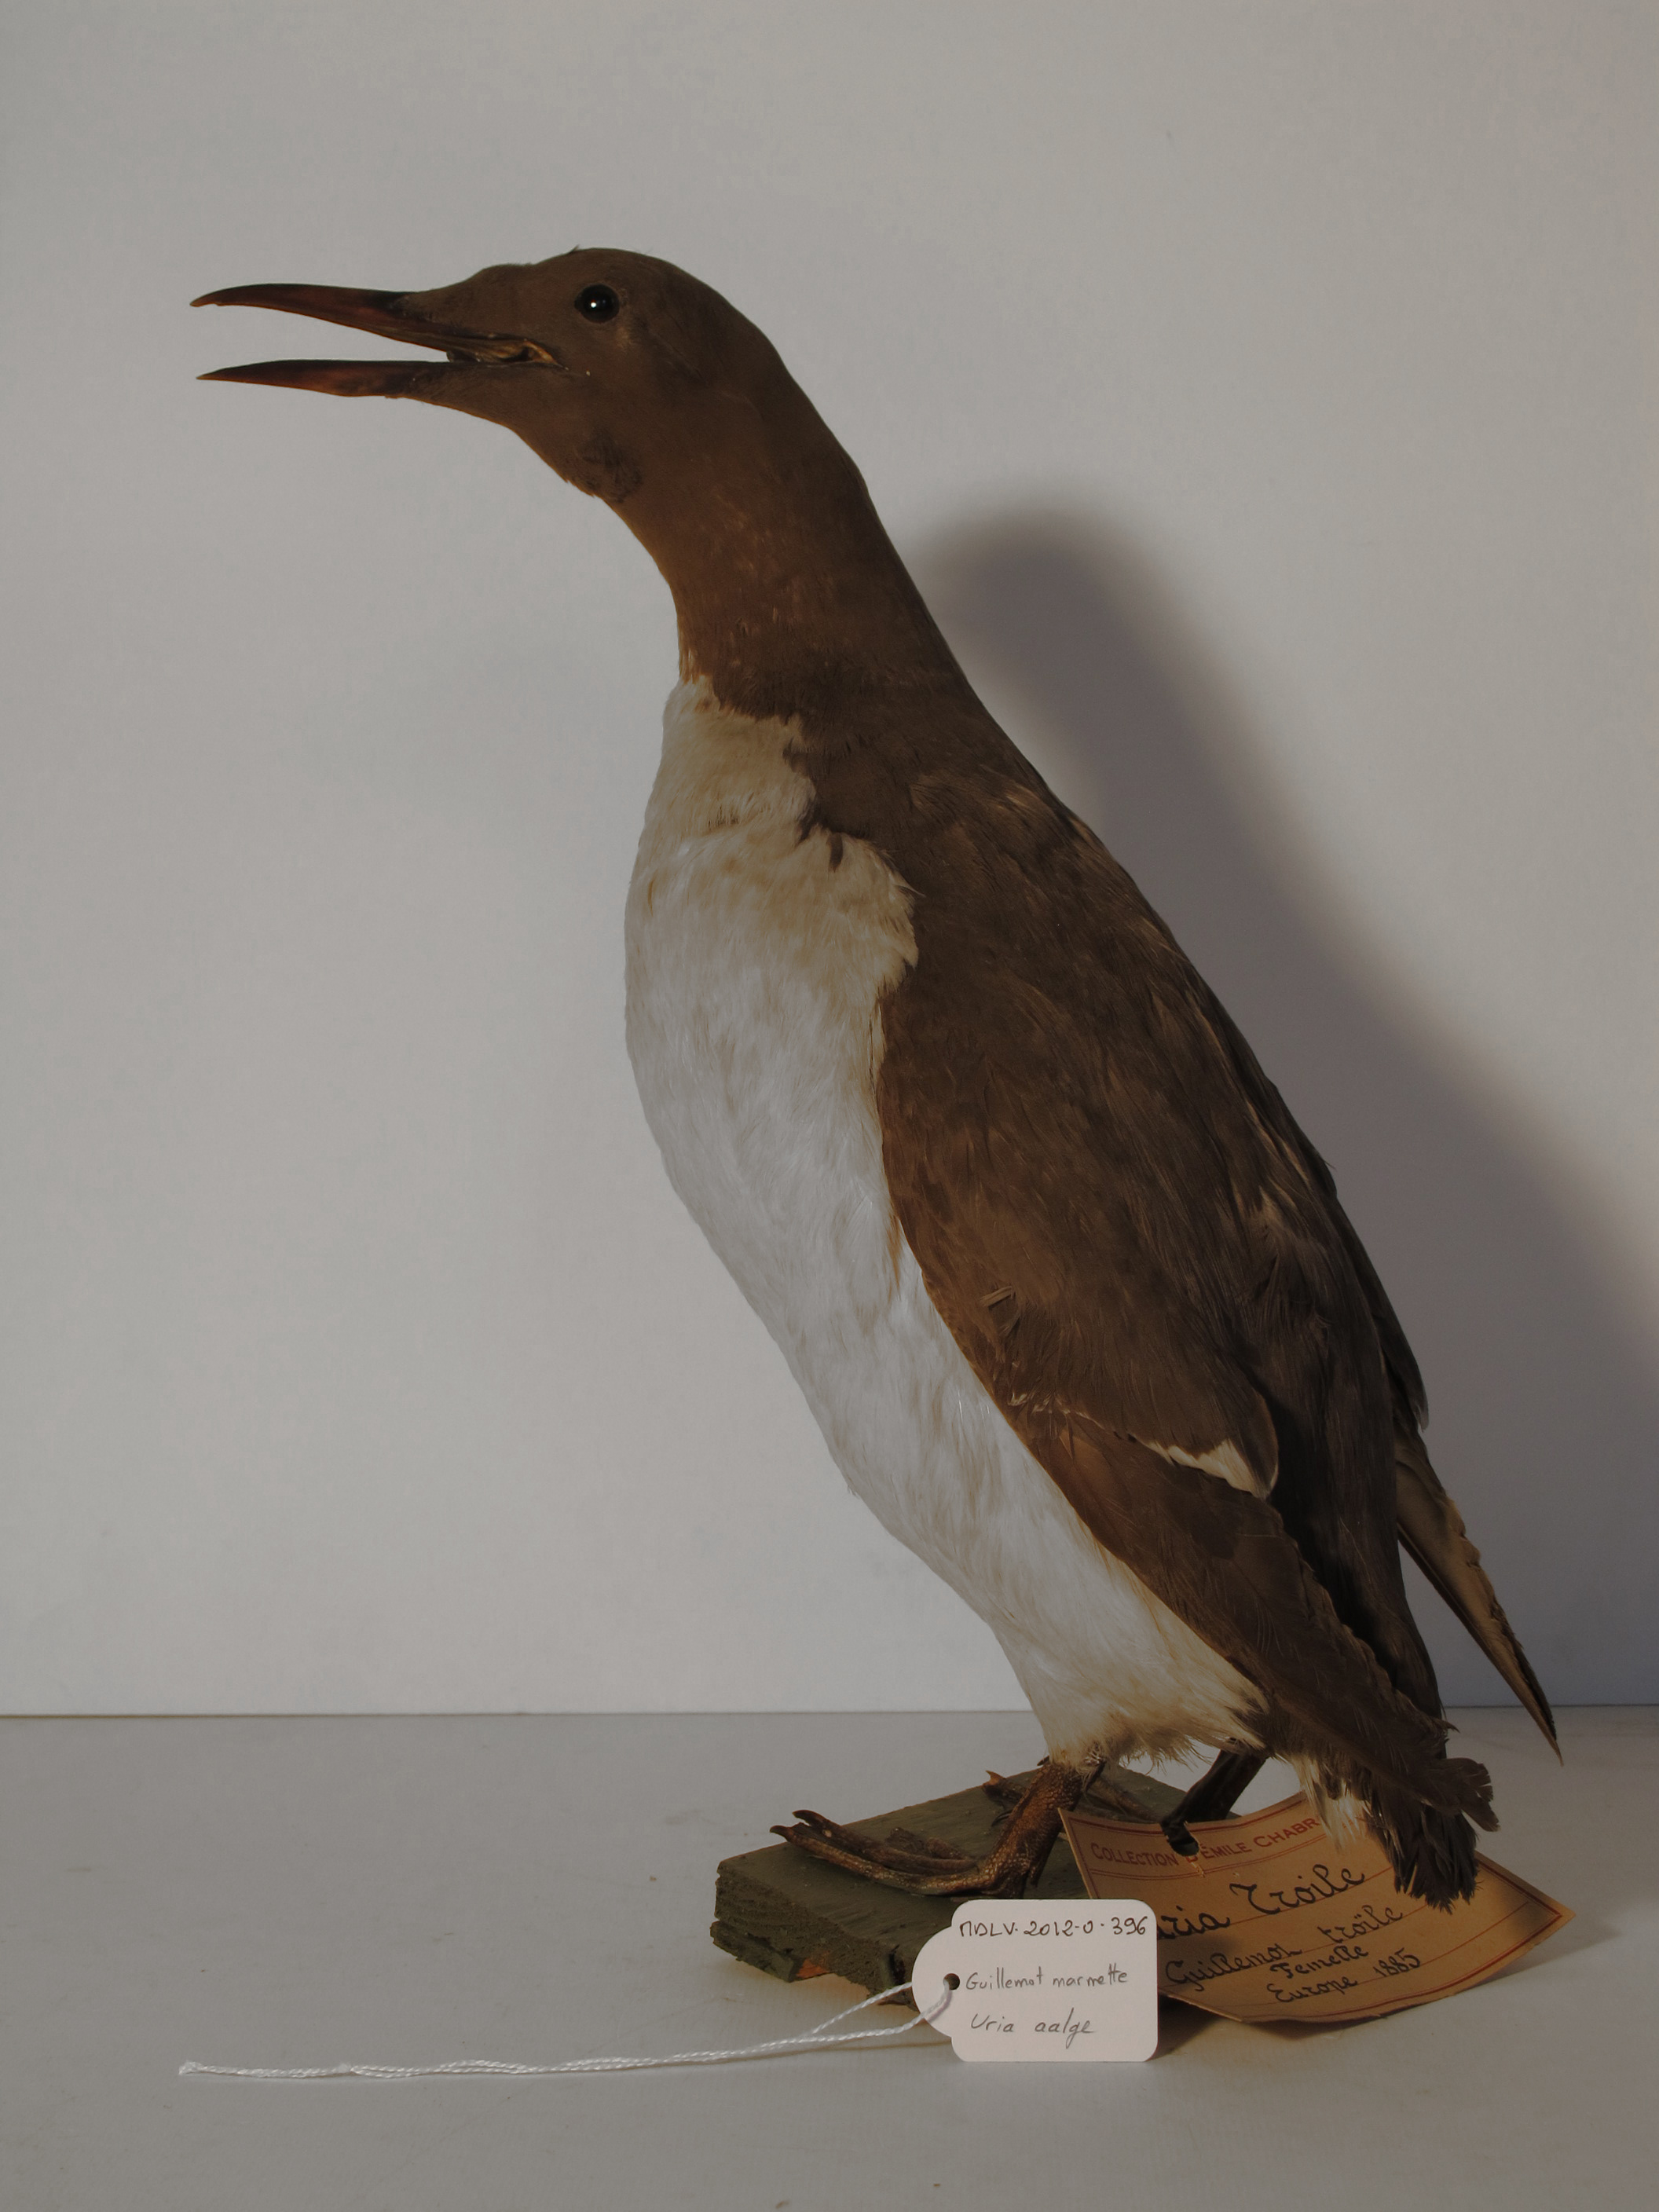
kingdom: Animalia
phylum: Chordata
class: Aves
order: Charadriiformes
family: Alcidae
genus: Uria
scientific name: Uria aalge
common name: Common Murre
